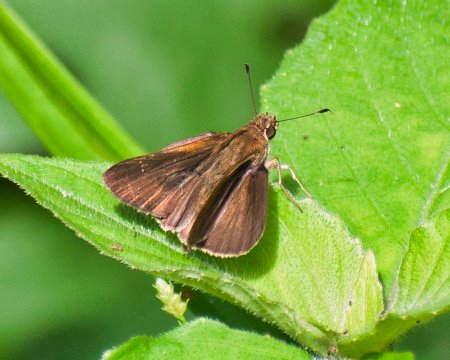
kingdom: Animalia
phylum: Arthropoda
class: Insecta
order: Lepidoptera
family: Hesperiidae
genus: Cymaenes
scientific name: Cymaenes tripunctus
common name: Three-spotted Skipper
